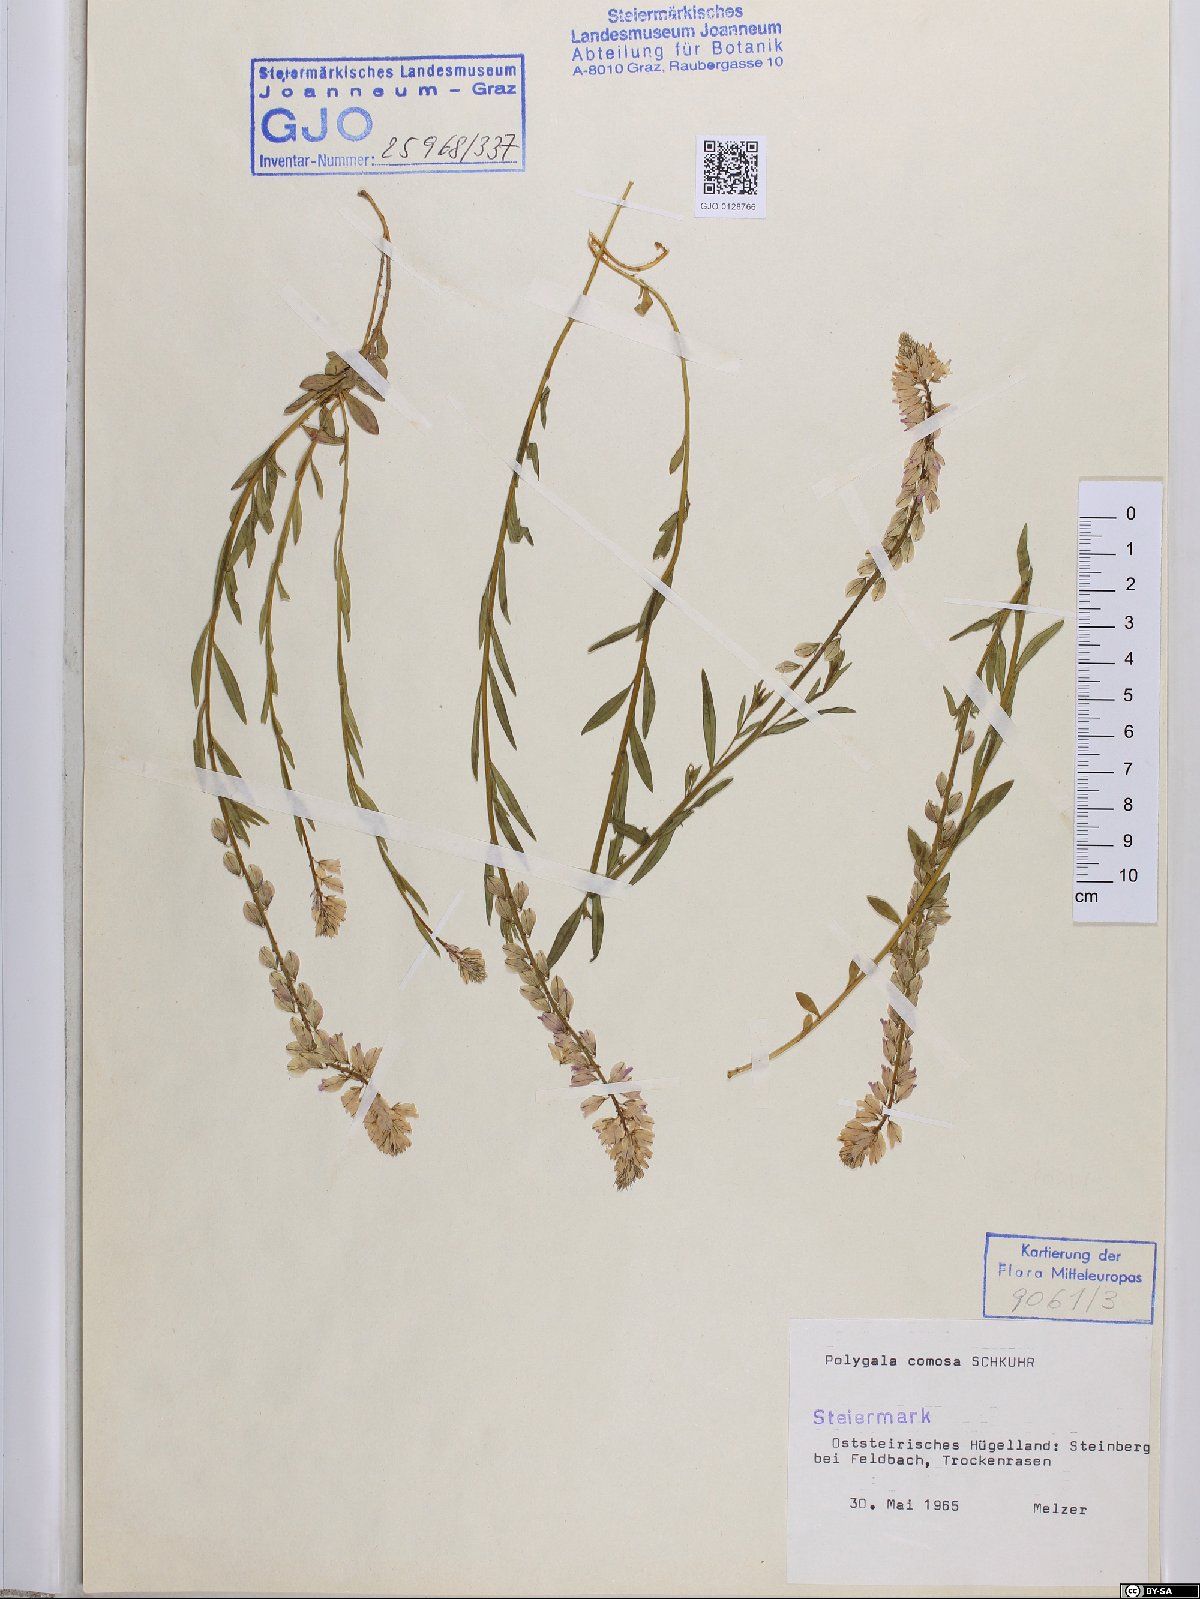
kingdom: Plantae
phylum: Tracheophyta
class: Magnoliopsida
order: Fabales
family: Polygalaceae
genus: Polygala
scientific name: Polygala comosa
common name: Tufted milkwort
